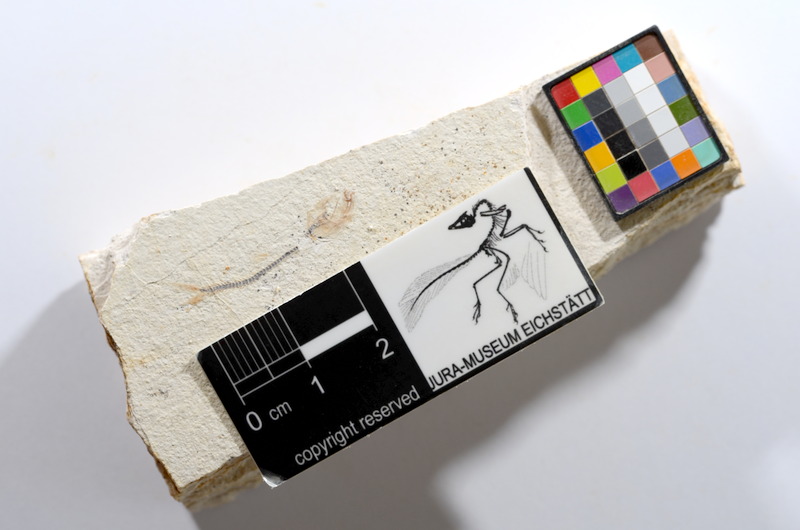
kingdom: Animalia
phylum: Chordata
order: Salmoniformes
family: Orthogonikleithridae
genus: Orthogonikleithrus
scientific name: Orthogonikleithrus hoelli
